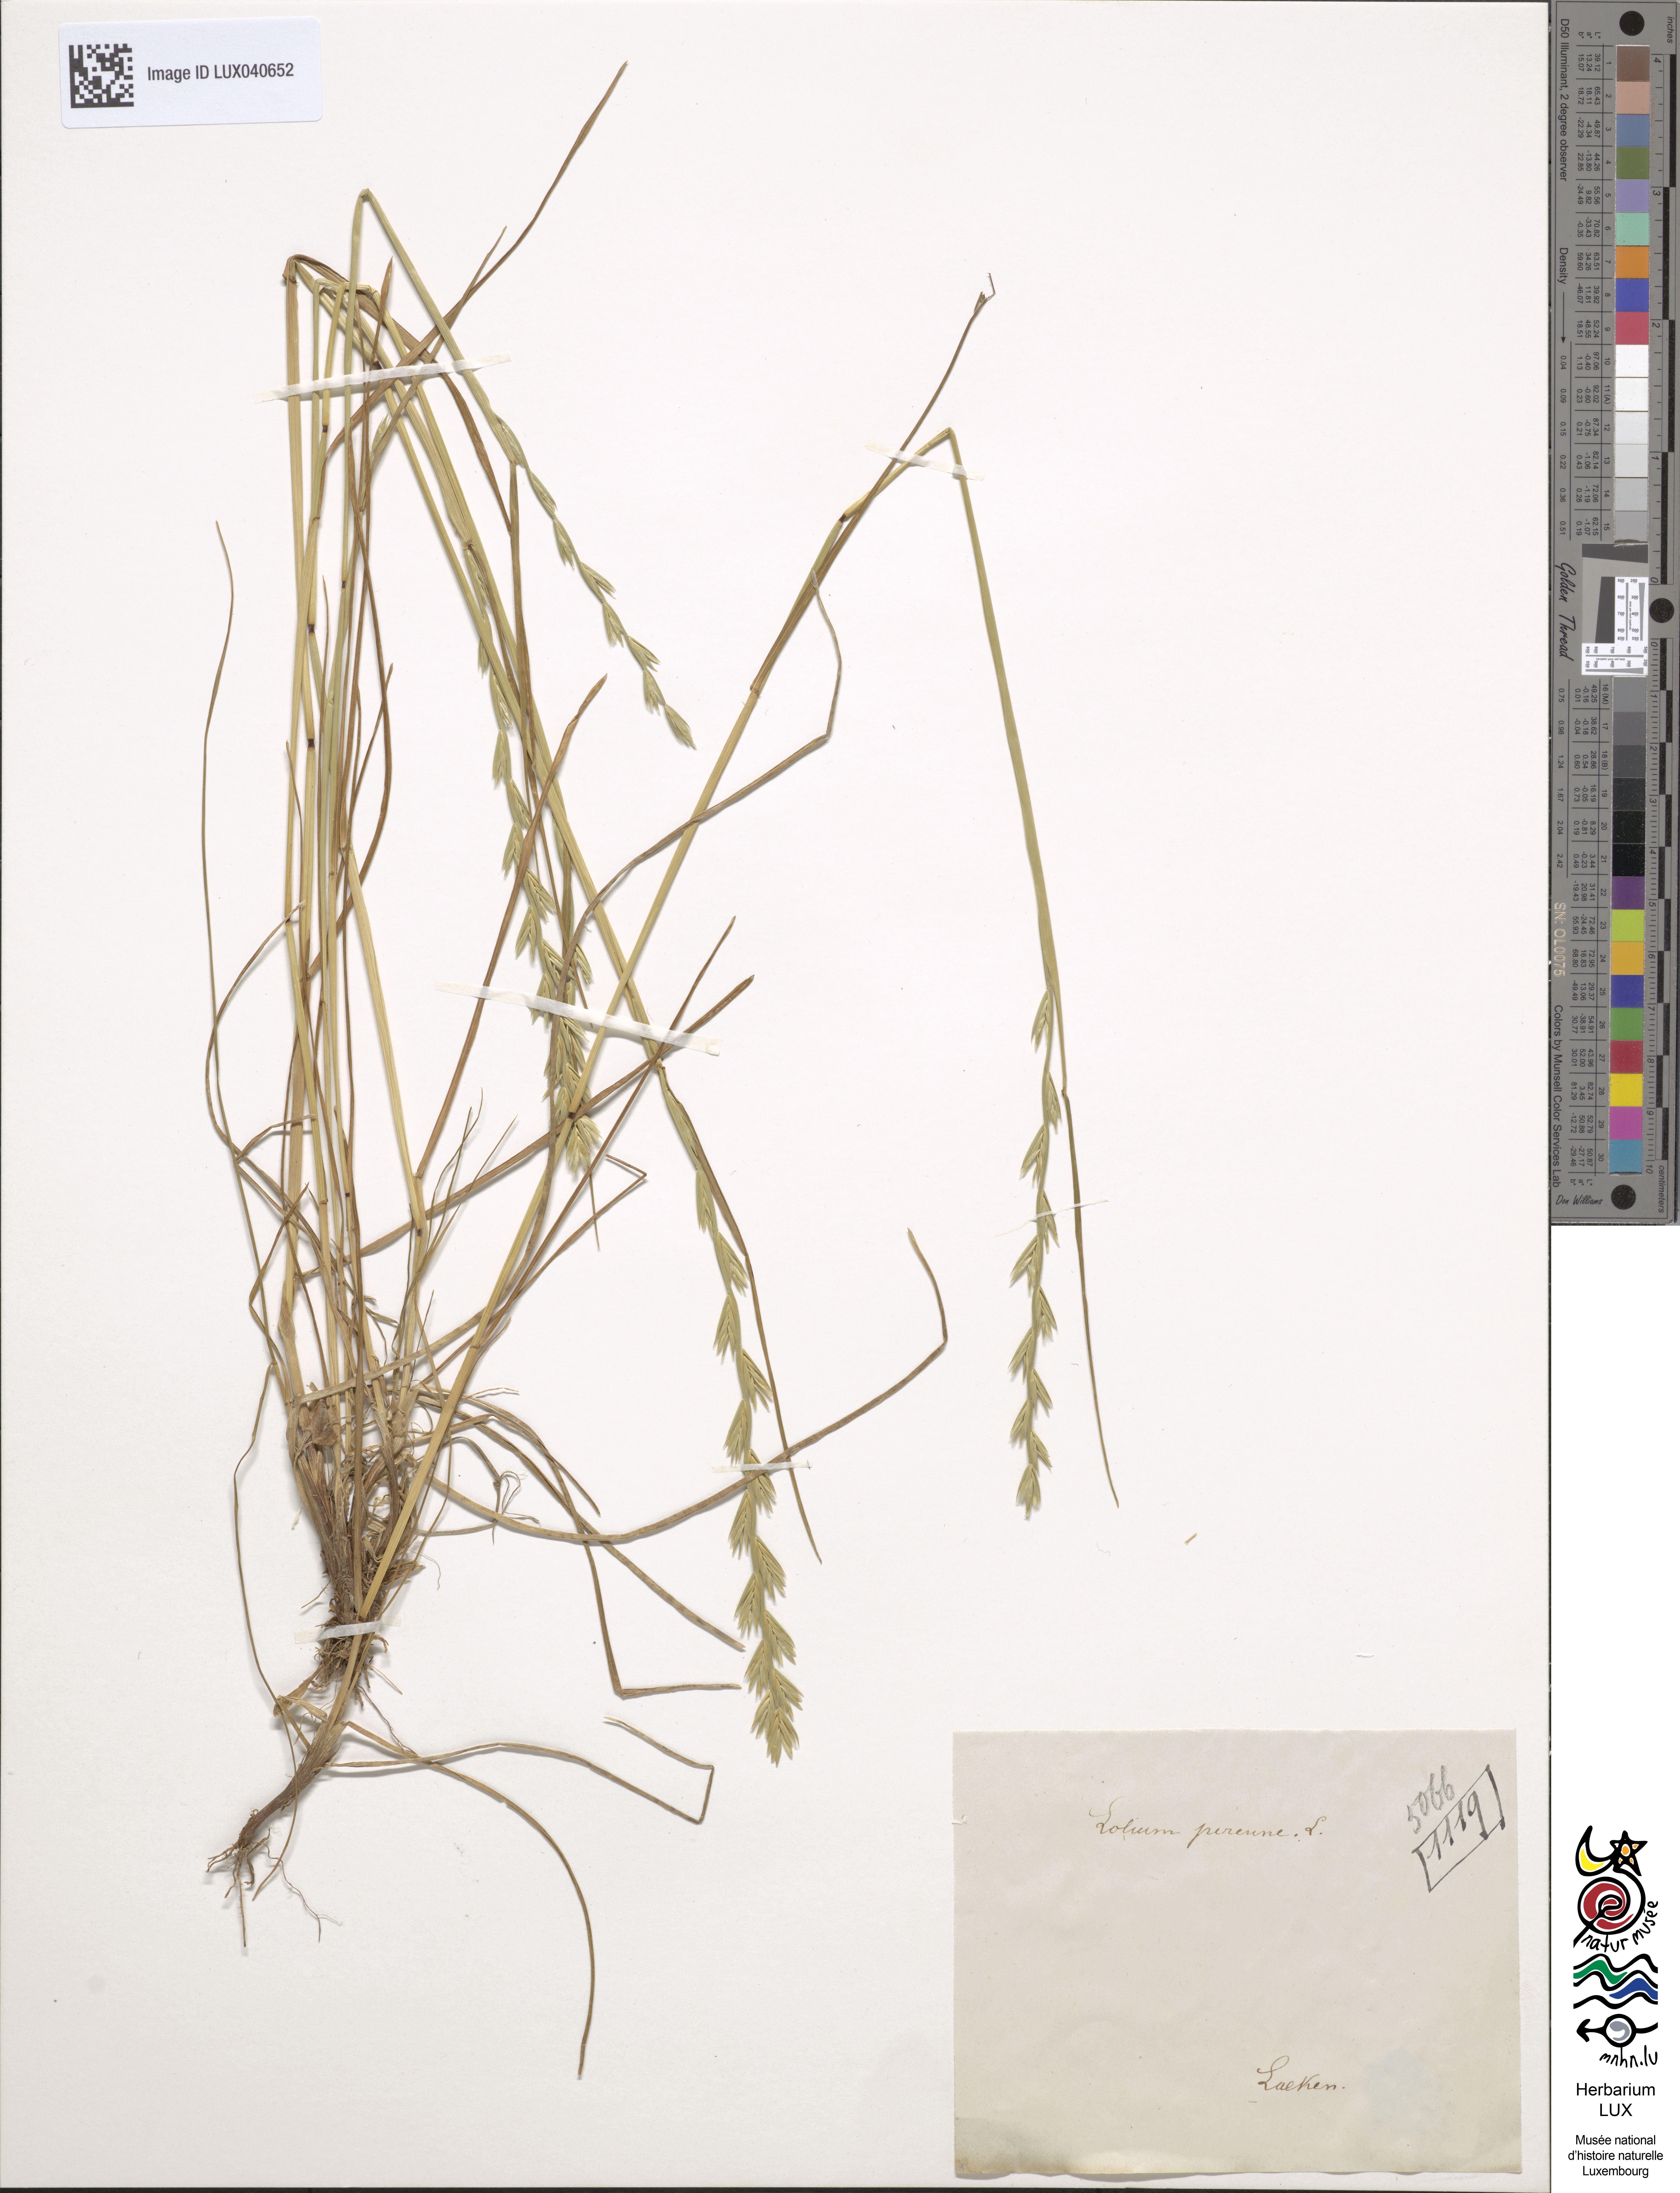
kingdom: Plantae
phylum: Tracheophyta
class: Liliopsida
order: Poales
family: Poaceae
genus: Lolium
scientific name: Lolium perenne
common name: Perennial ryegrass
